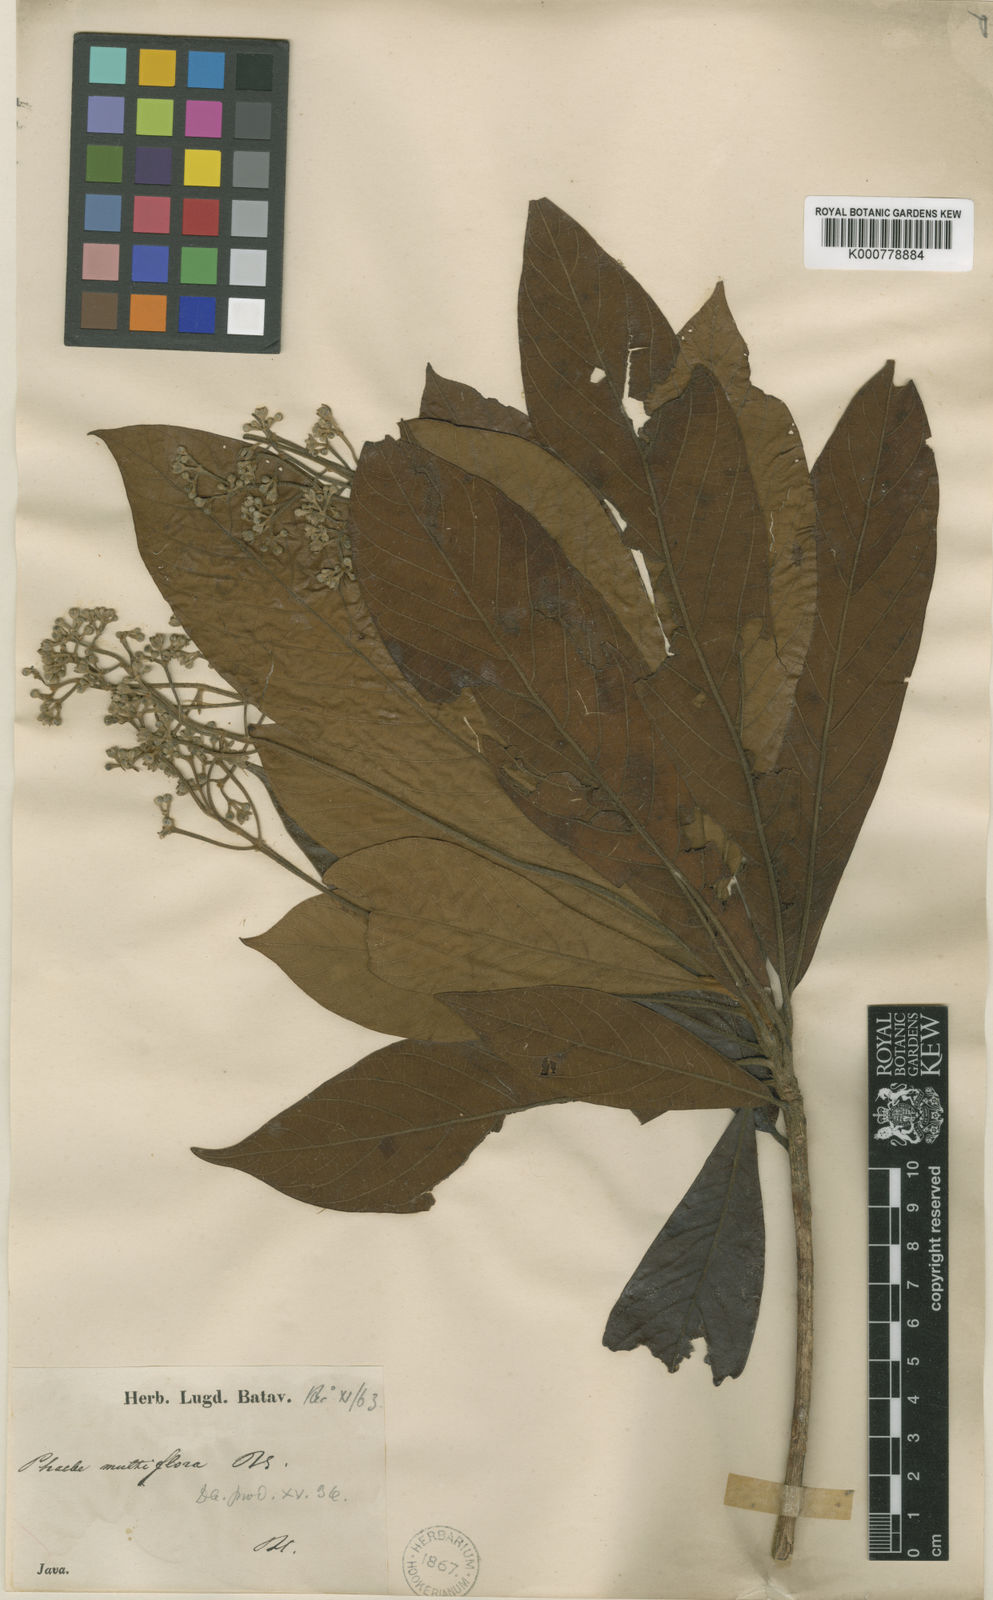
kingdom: Plantae
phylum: Tracheophyta
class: Magnoliopsida
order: Laurales
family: Lauraceae
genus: Phoebe
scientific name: Phoebe cuneata
